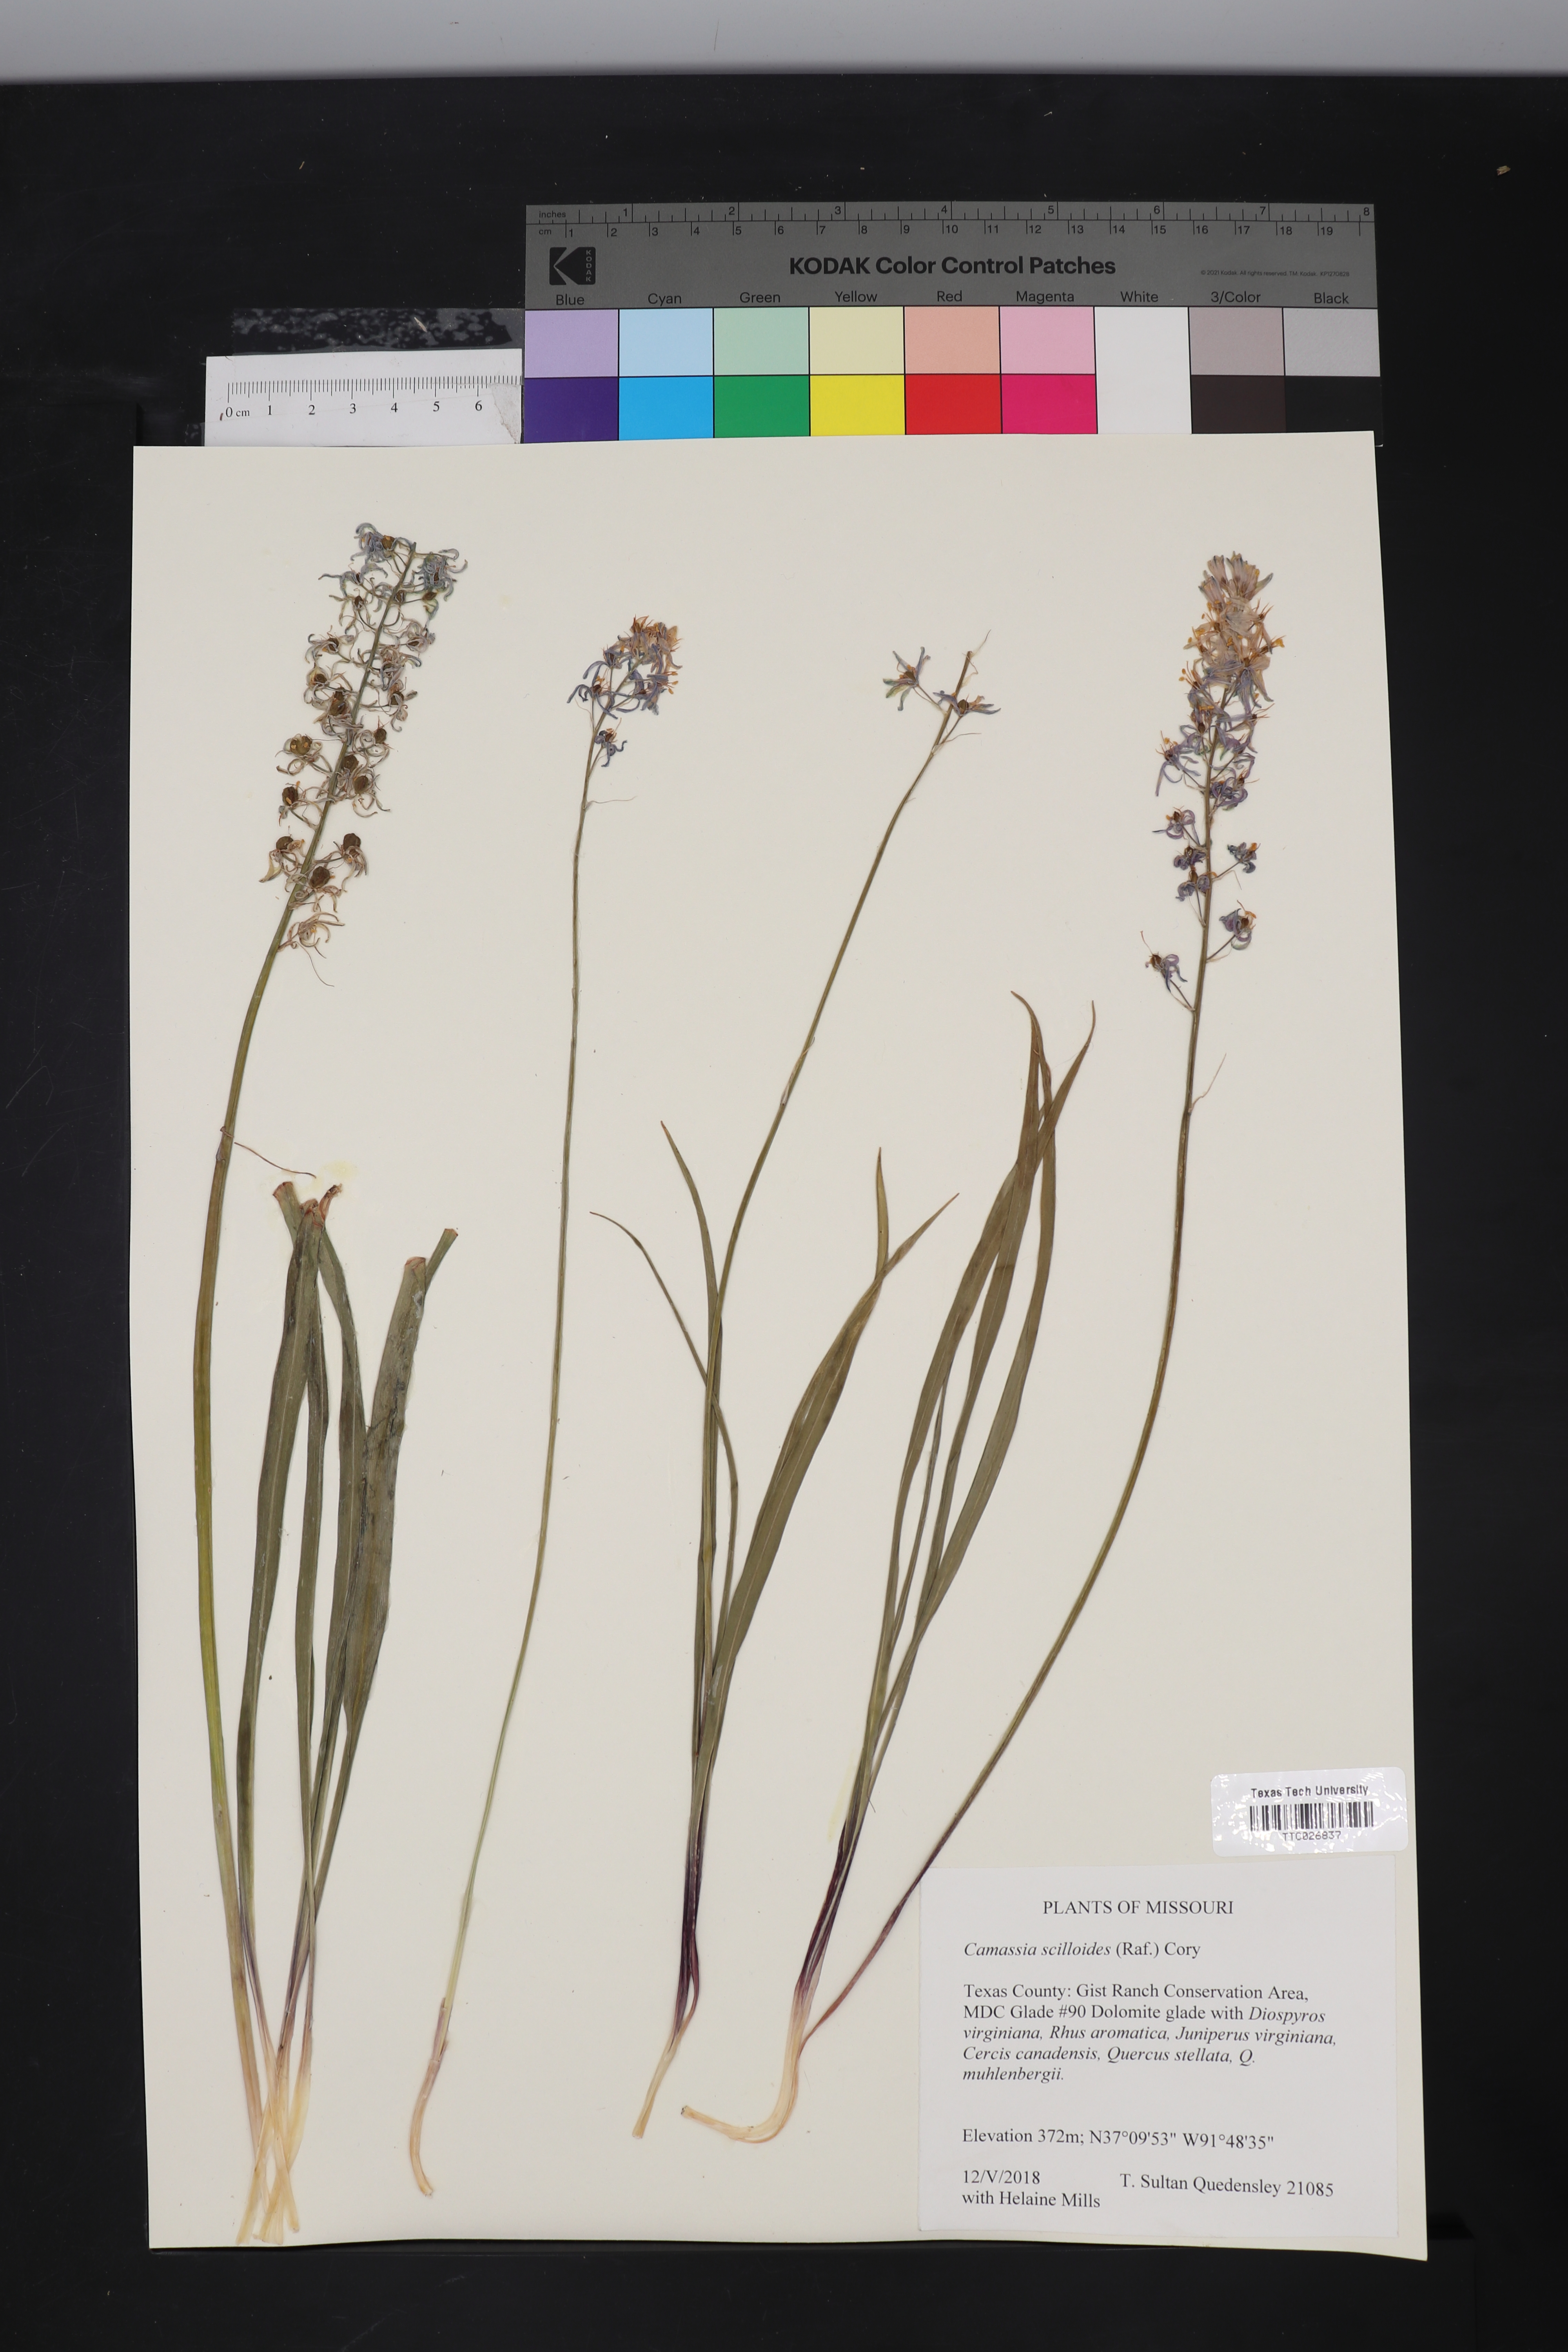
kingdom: Plantae
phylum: Tracheophyta
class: Liliopsida
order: Asparagales
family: Asparagaceae
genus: Camassia
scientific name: Camassia scilloides
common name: Wild hyacinth
